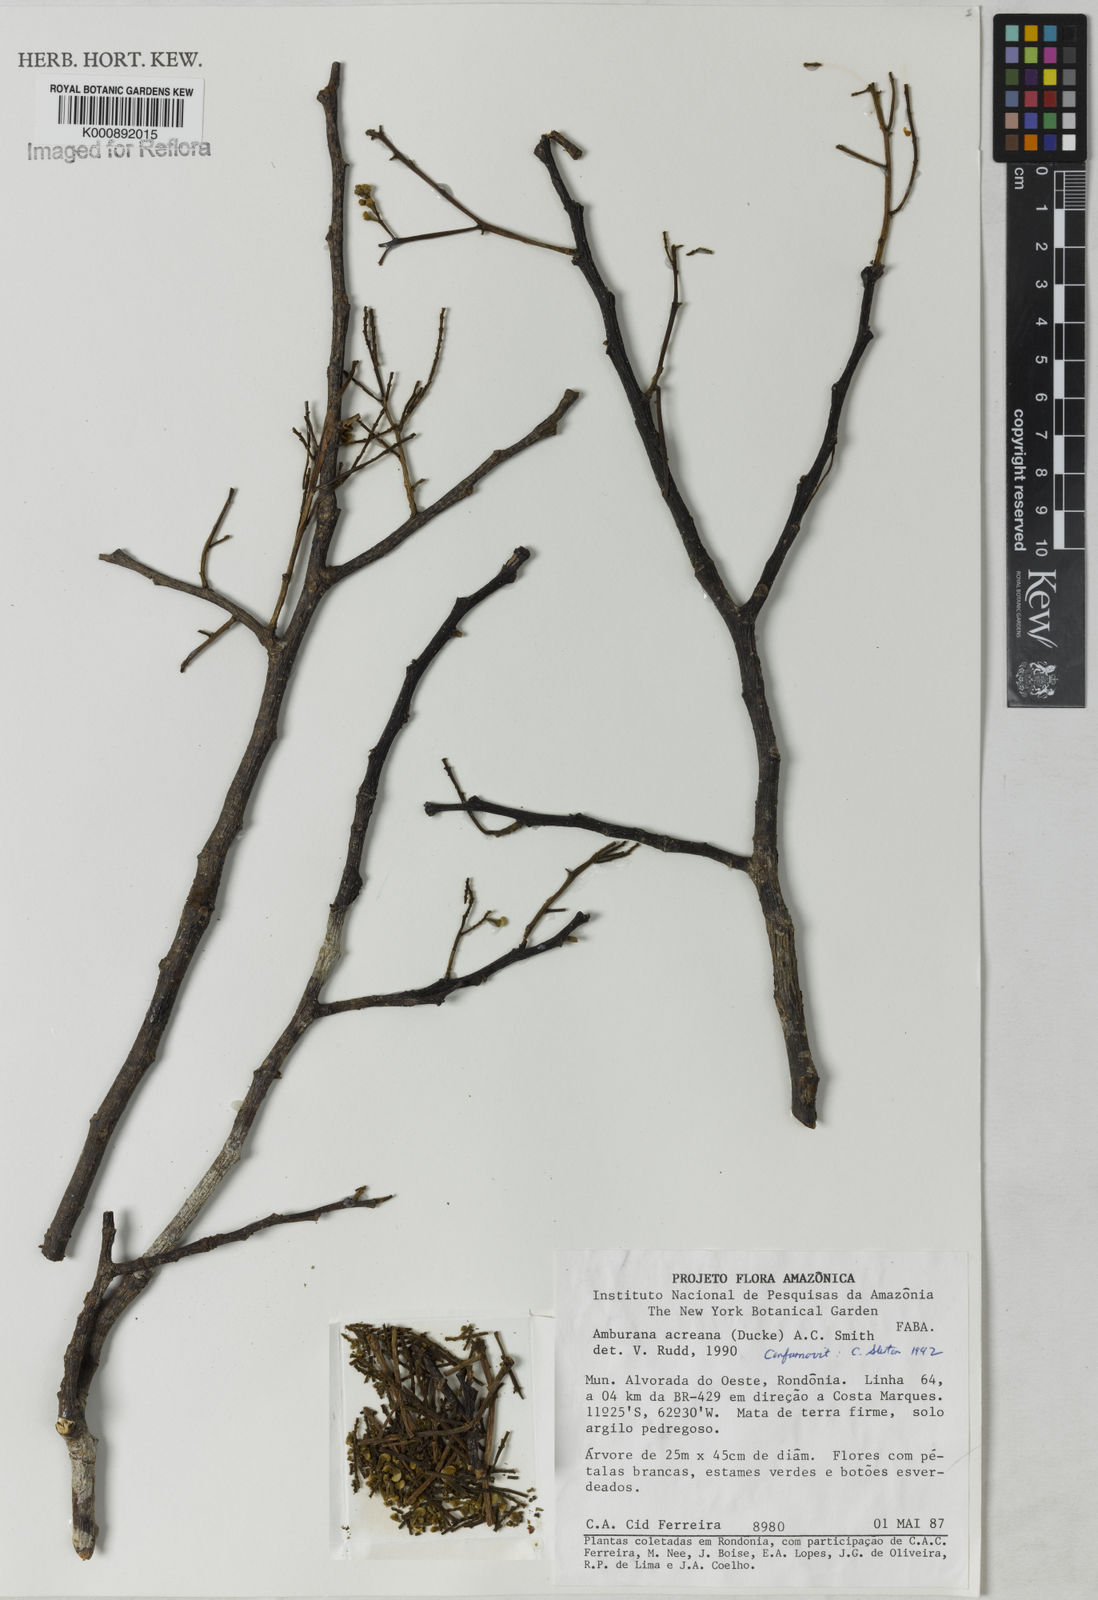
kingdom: Plantae
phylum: Tracheophyta
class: Magnoliopsida
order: Fabales
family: Fabaceae
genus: Amburana
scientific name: Amburana acreana
